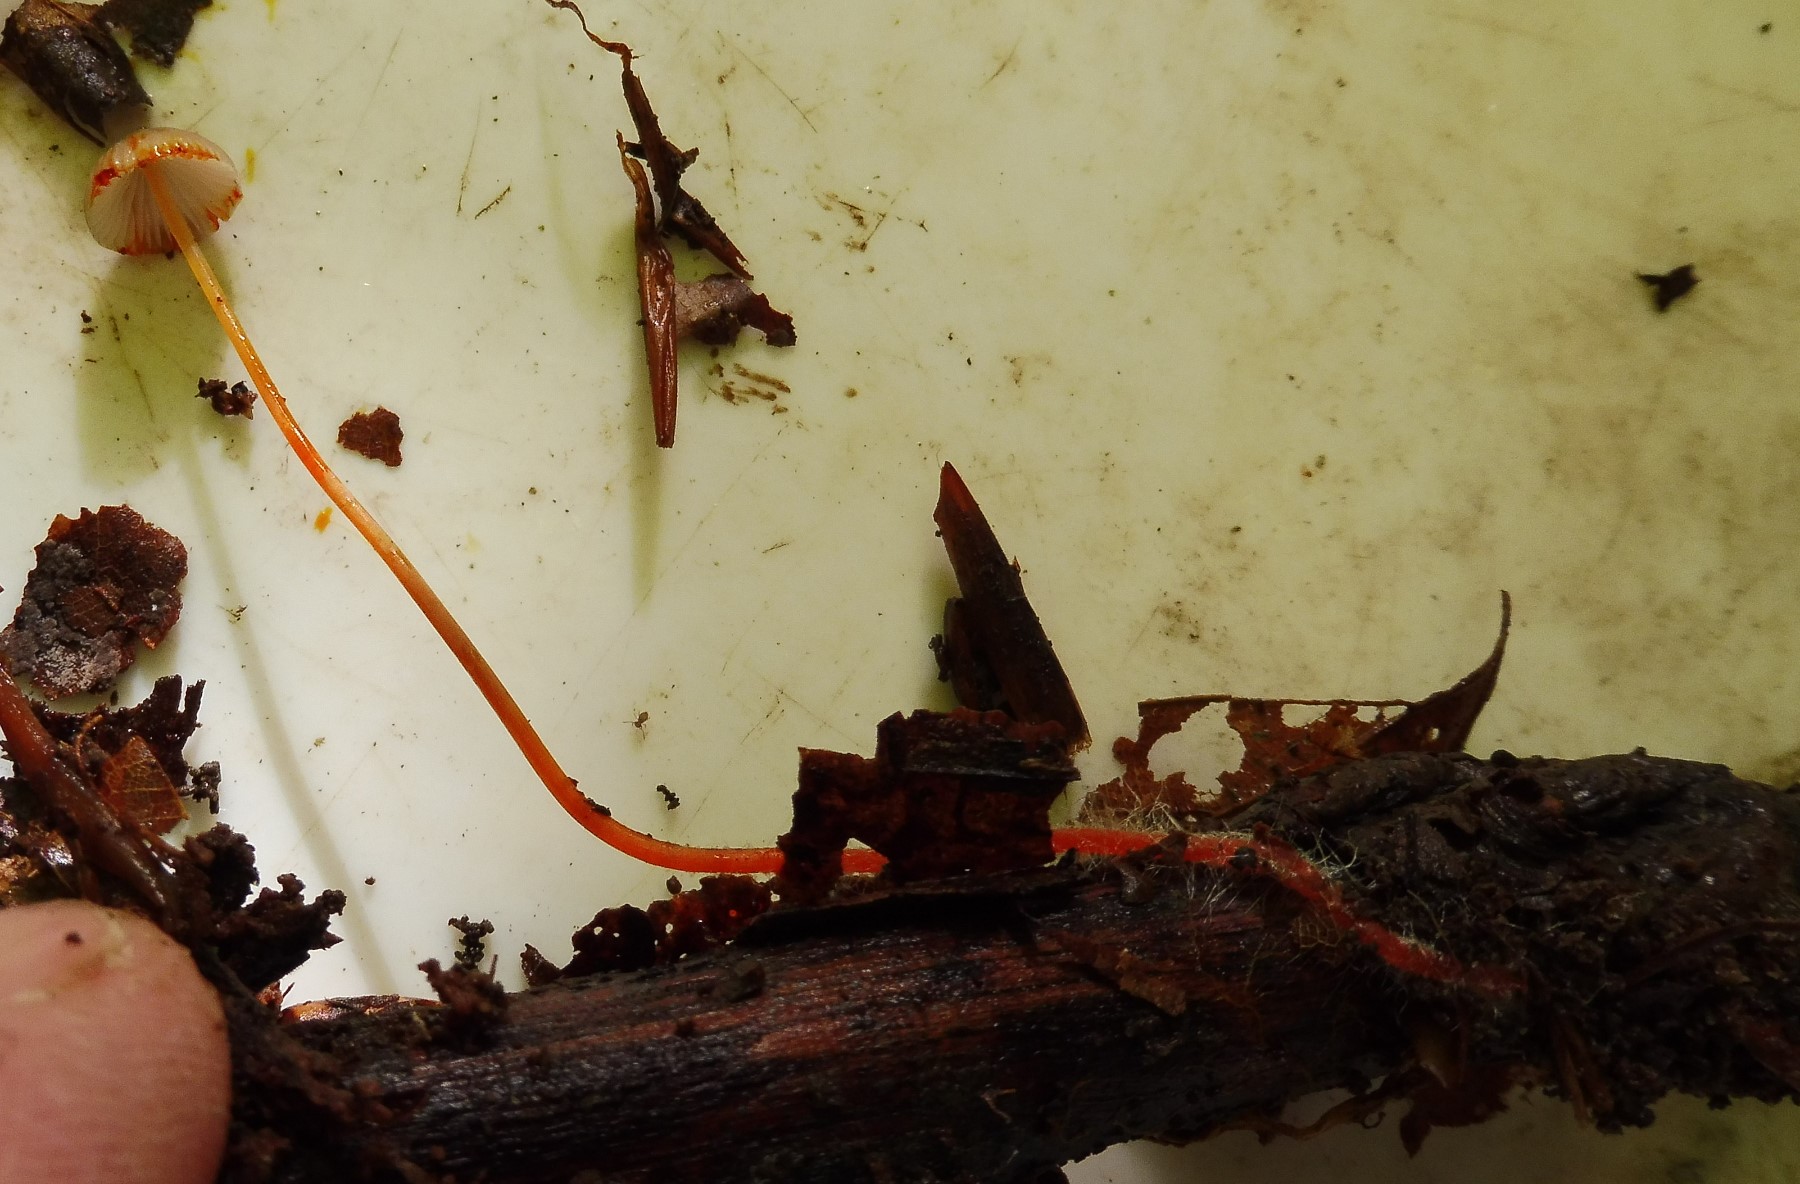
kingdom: Fungi
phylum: Basidiomycota
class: Agaricomycetes
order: Agaricales
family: Mycenaceae
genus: Mycena
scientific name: Mycena crocata
